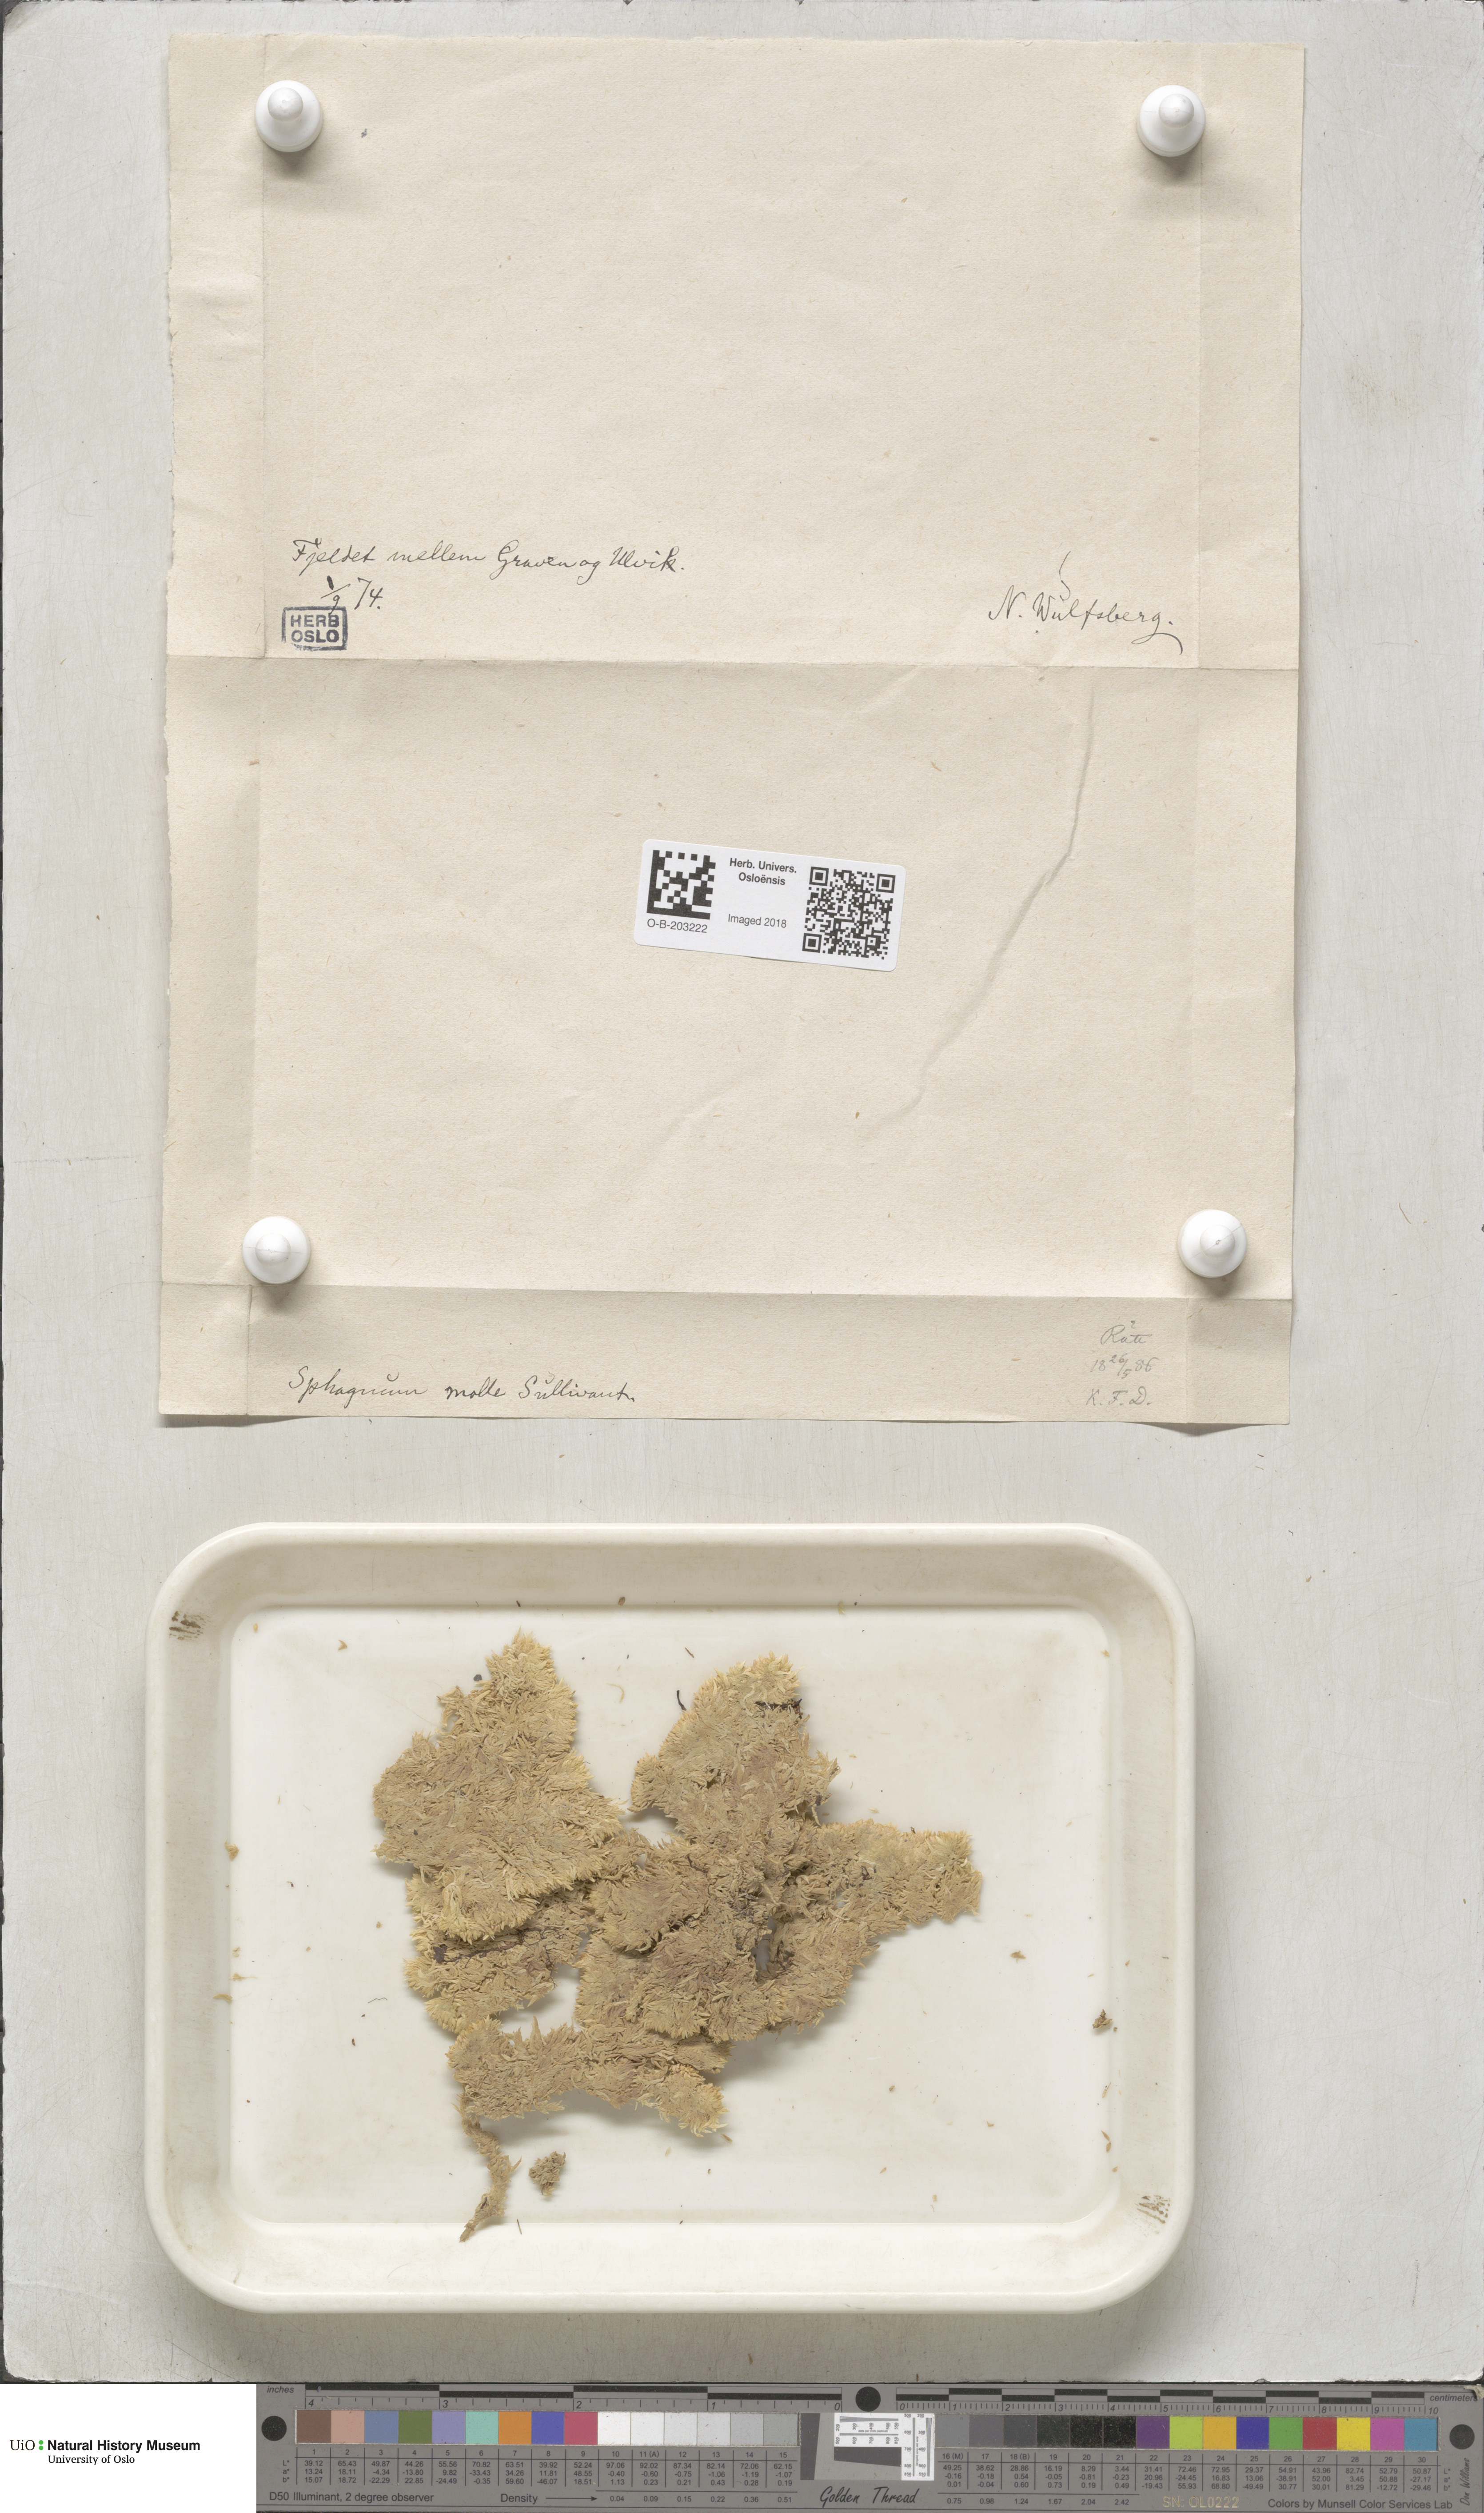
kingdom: Plantae
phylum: Bryophyta
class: Sphagnopsida
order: Sphagnales
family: Sphagnaceae
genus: Sphagnum
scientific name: Sphagnum molle
